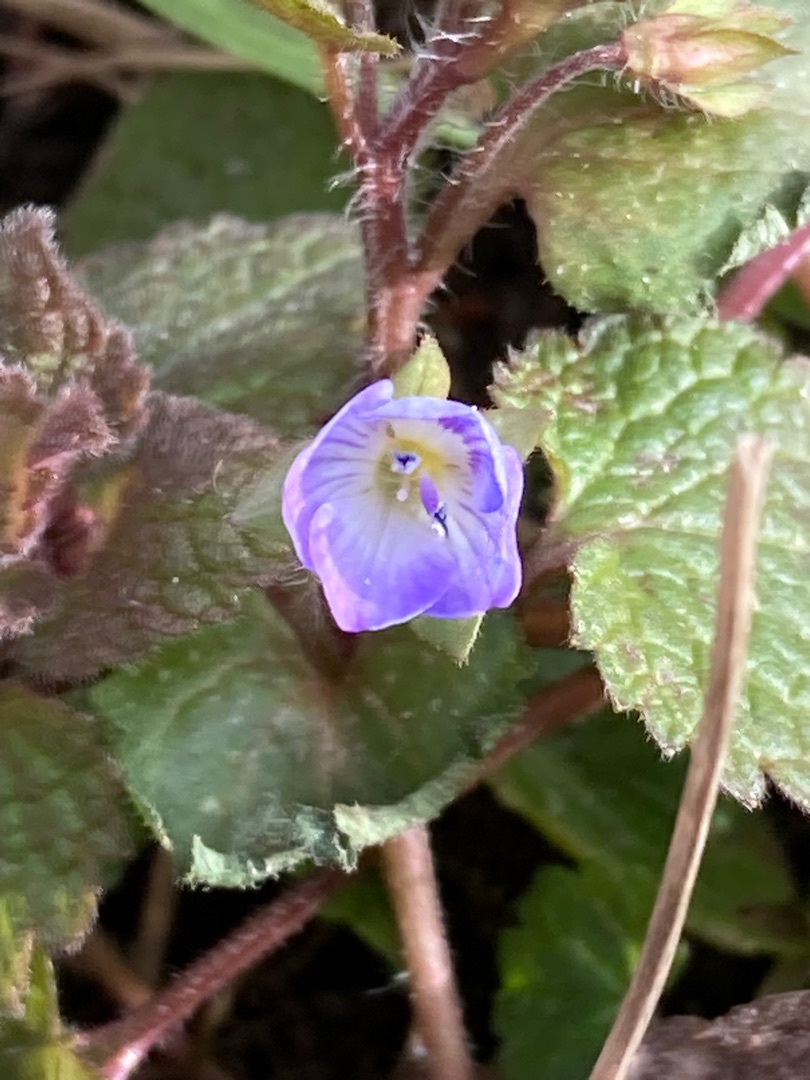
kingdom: Plantae
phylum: Tracheophyta
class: Magnoliopsida
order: Lamiales
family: Plantaginaceae
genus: Veronica
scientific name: Veronica persica
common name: Storkronet ærenpris
